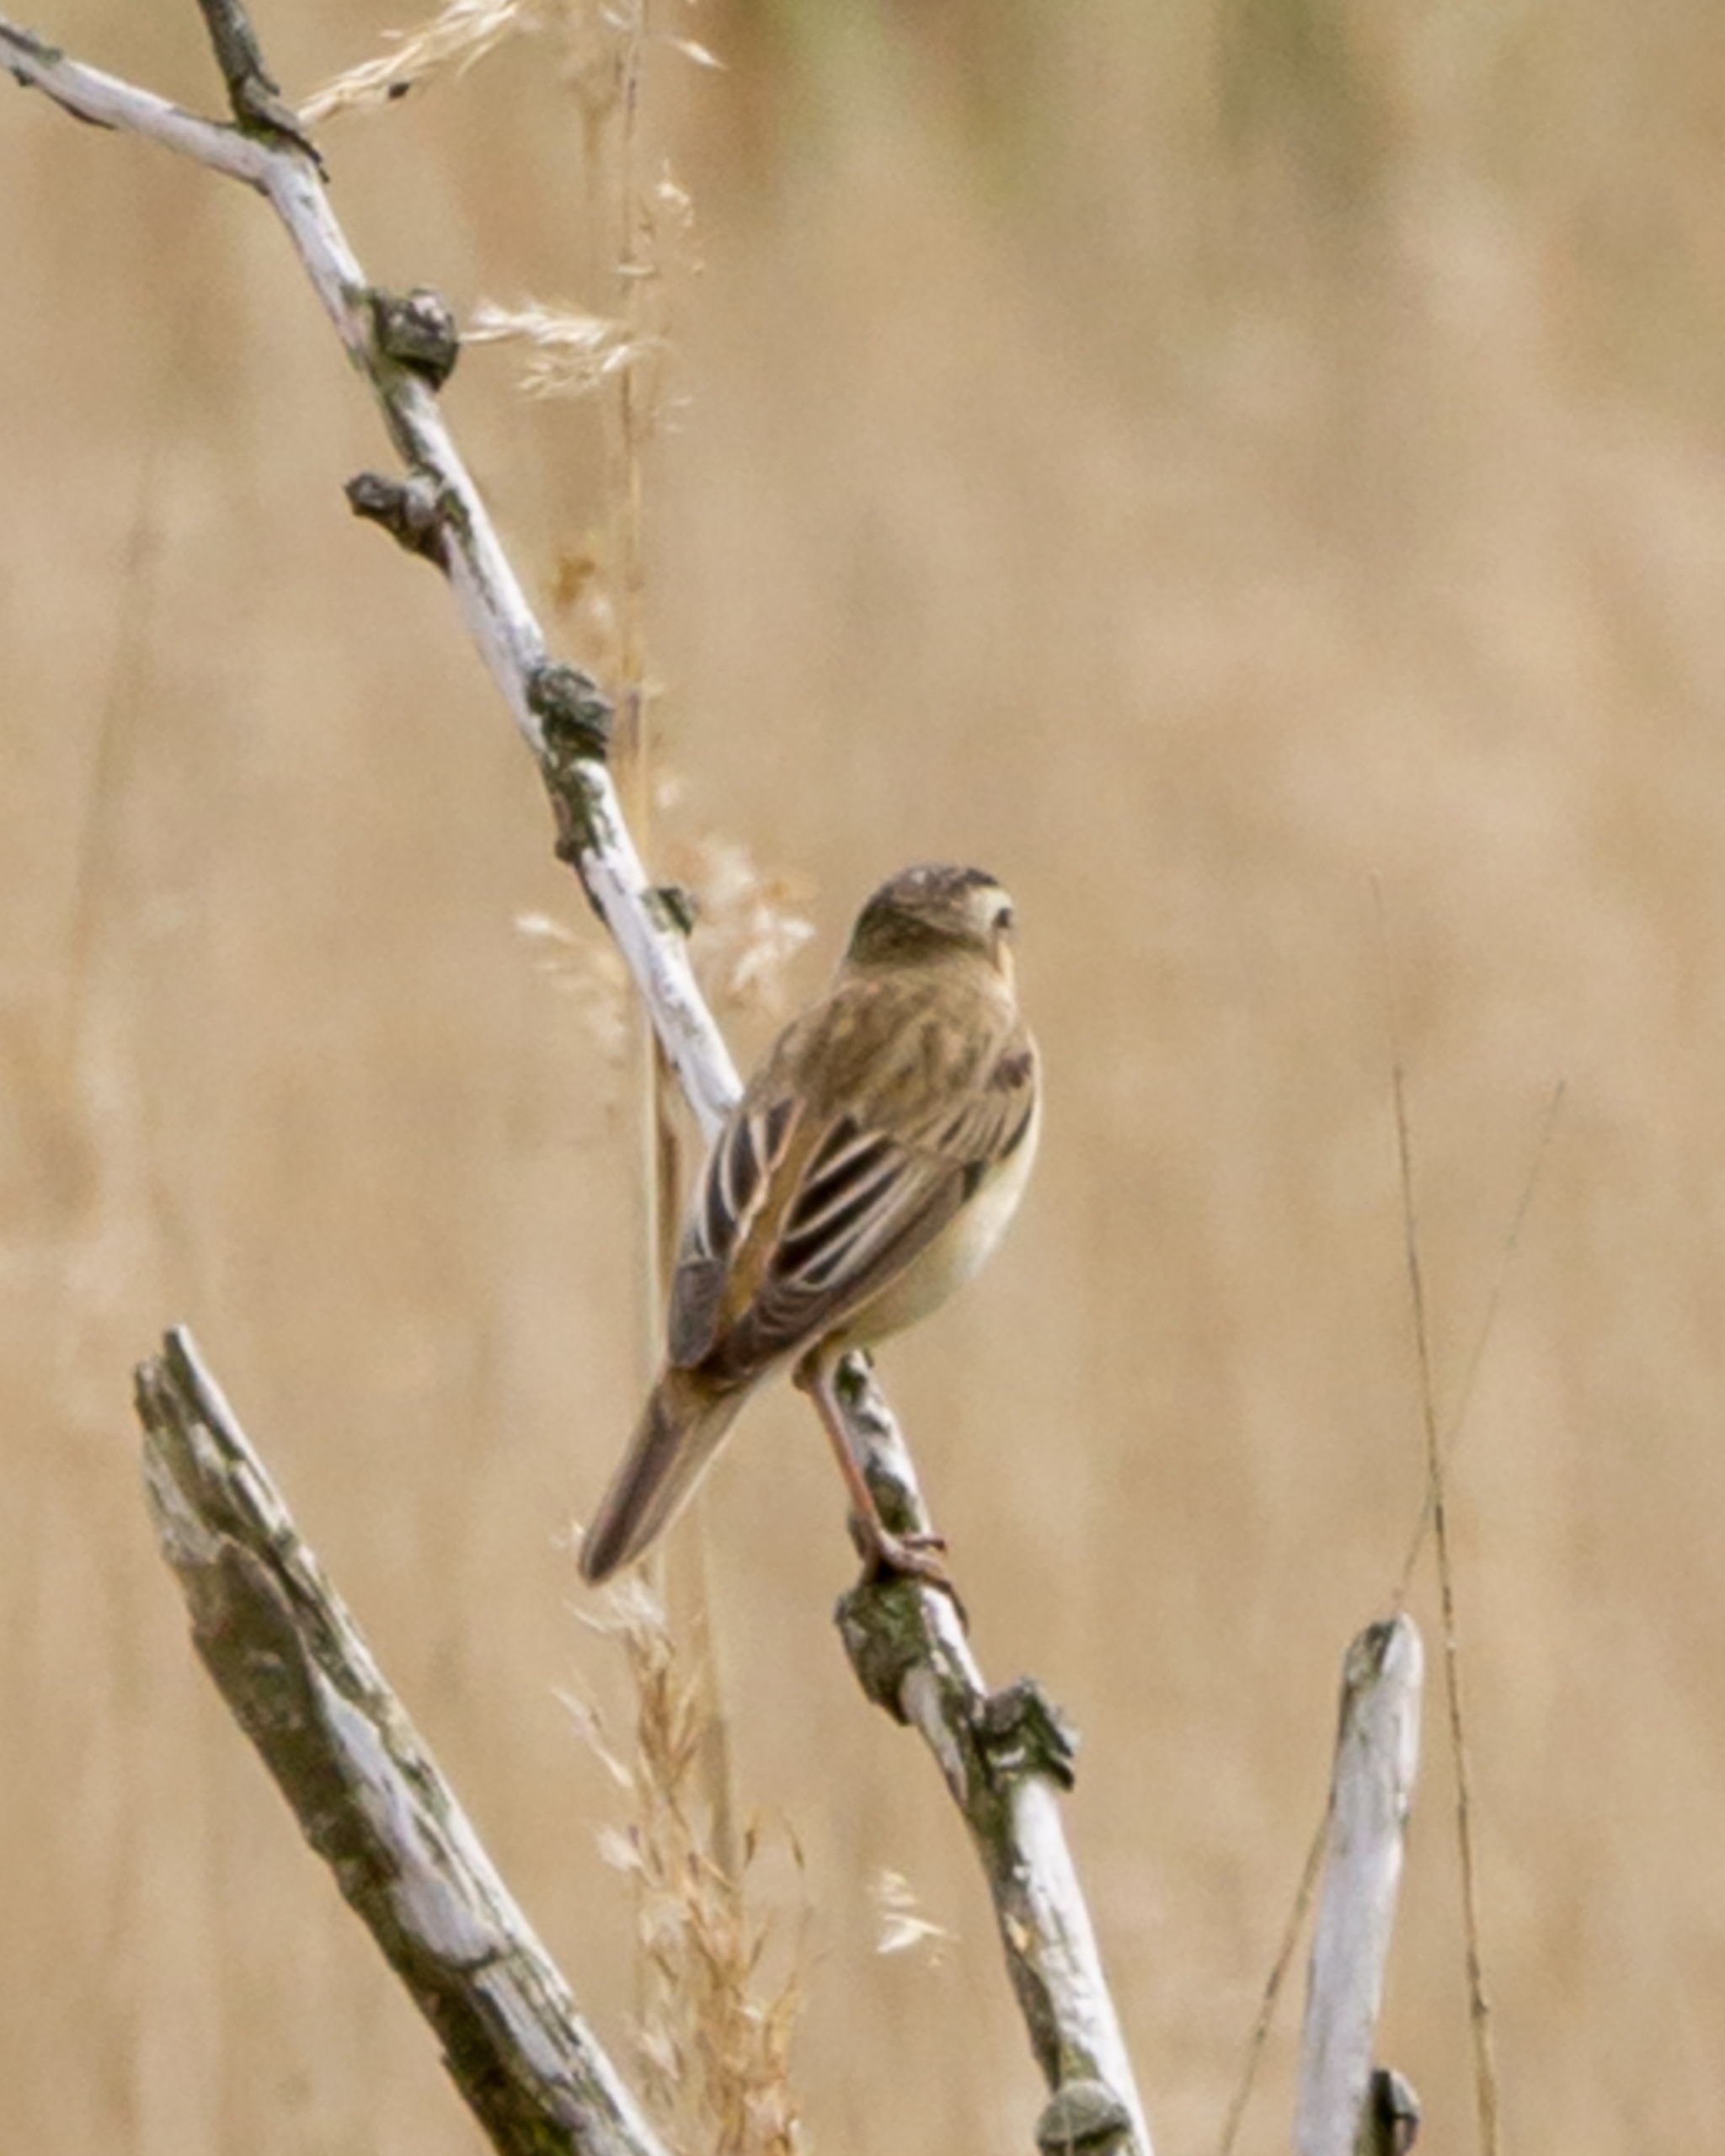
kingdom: Animalia
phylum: Chordata
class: Aves
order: Passeriformes
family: Acrocephalidae
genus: Acrocephalus
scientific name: Acrocephalus schoenobaenus
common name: Sivsanger
